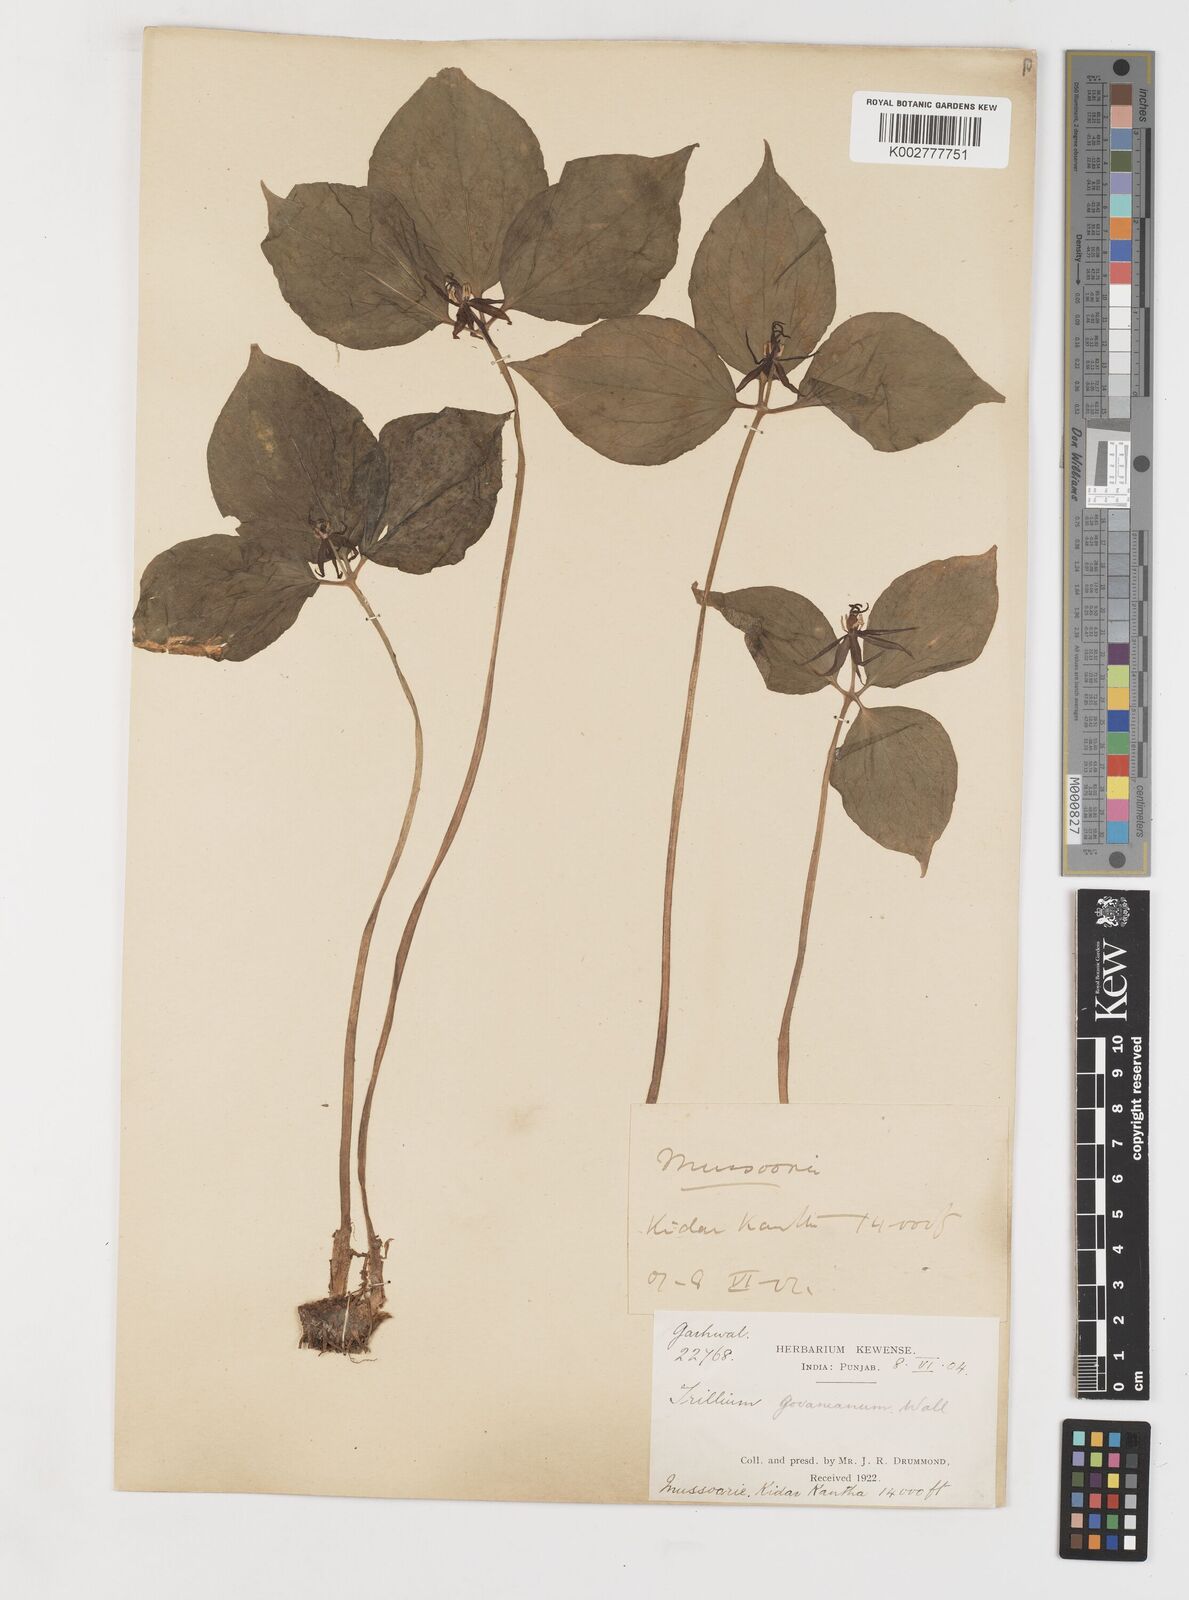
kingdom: Plantae
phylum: Tracheophyta
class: Liliopsida
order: Liliales
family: Melanthiaceae
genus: Trillium
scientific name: Trillium govanianum
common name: Himalayan trillium
